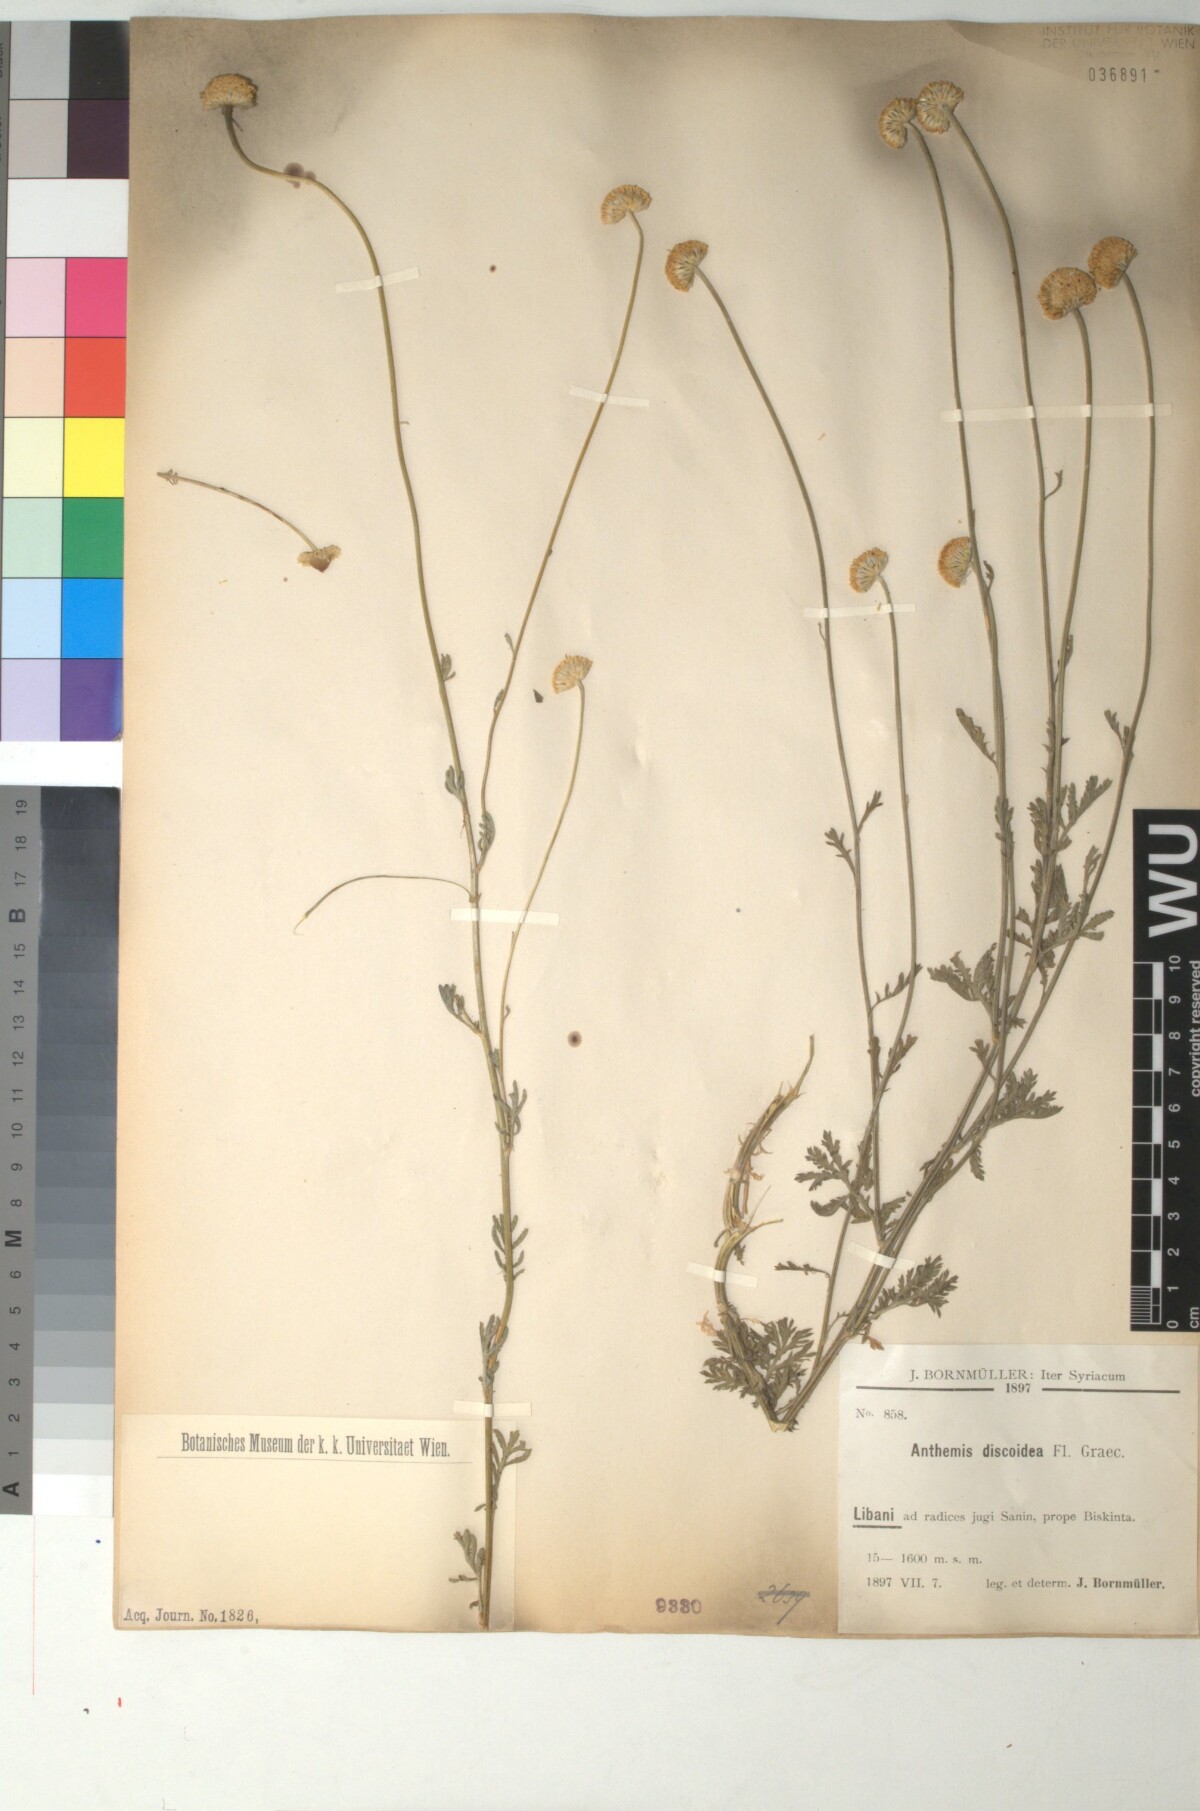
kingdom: Plantae
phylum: Tracheophyta
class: Magnoliopsida
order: Asterales
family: Asteraceae
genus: Cota
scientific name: Cota triumfetti
